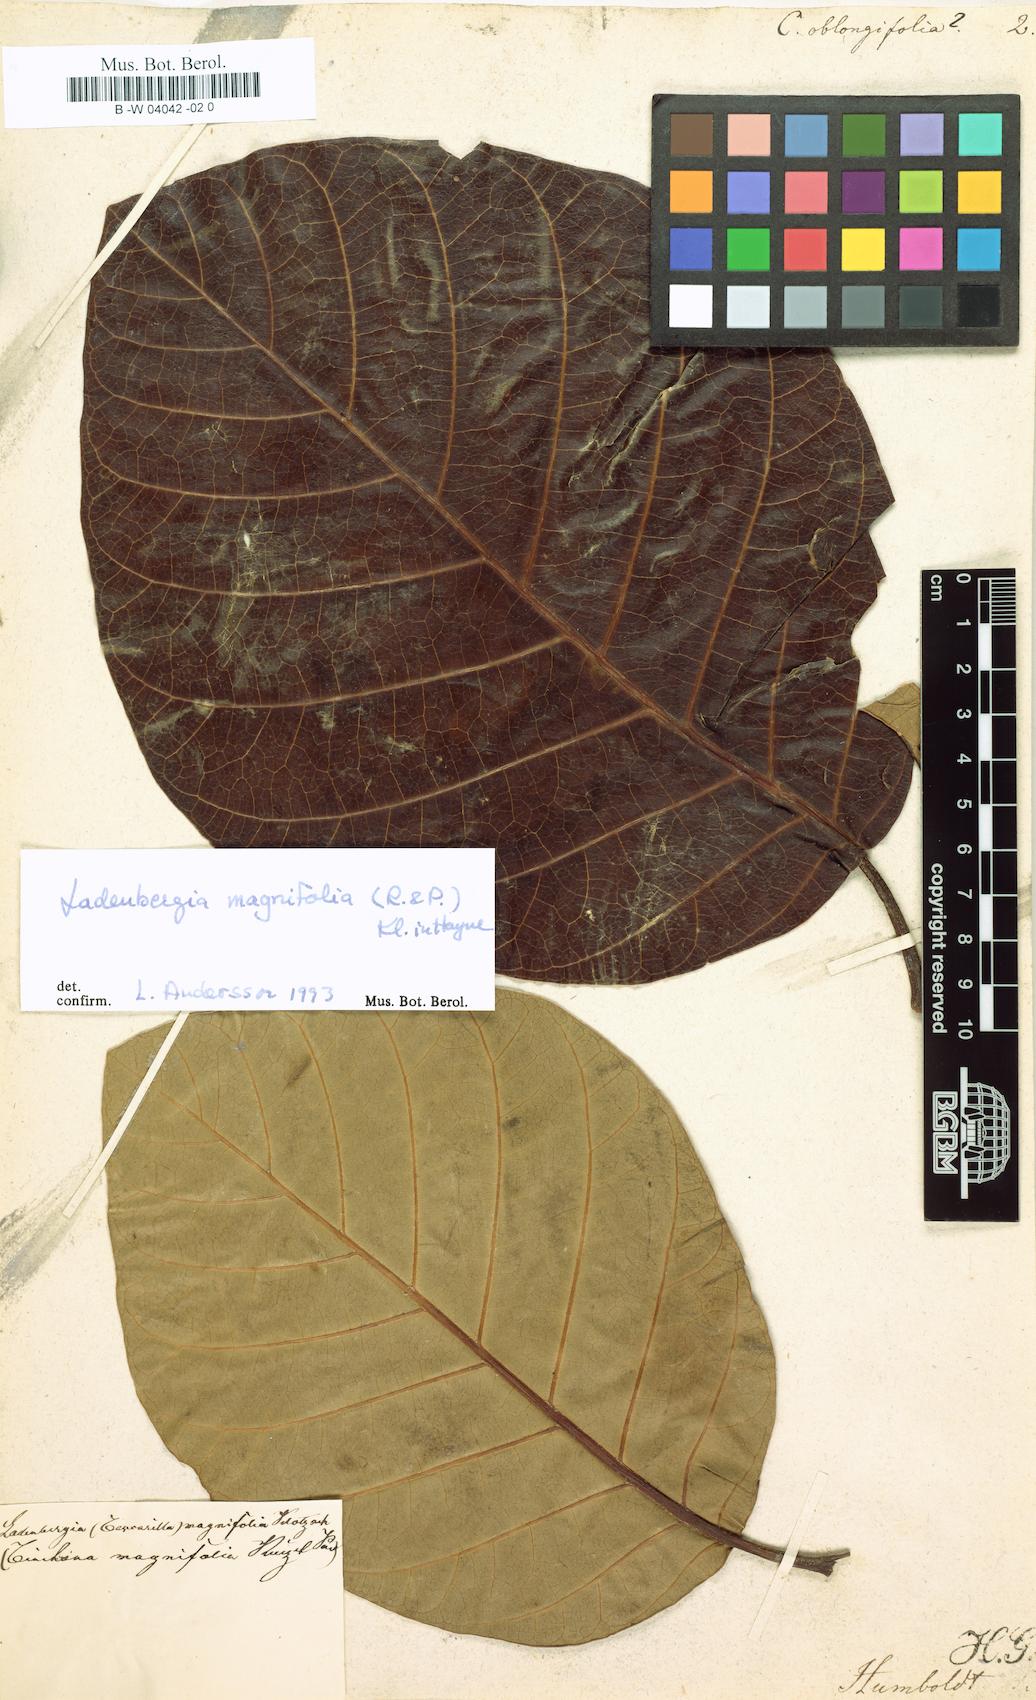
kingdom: Plantae
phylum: Tracheophyta
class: Magnoliopsida
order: Gentianales
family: Rubiaceae
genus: Ladenbergia
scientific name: Ladenbergia
